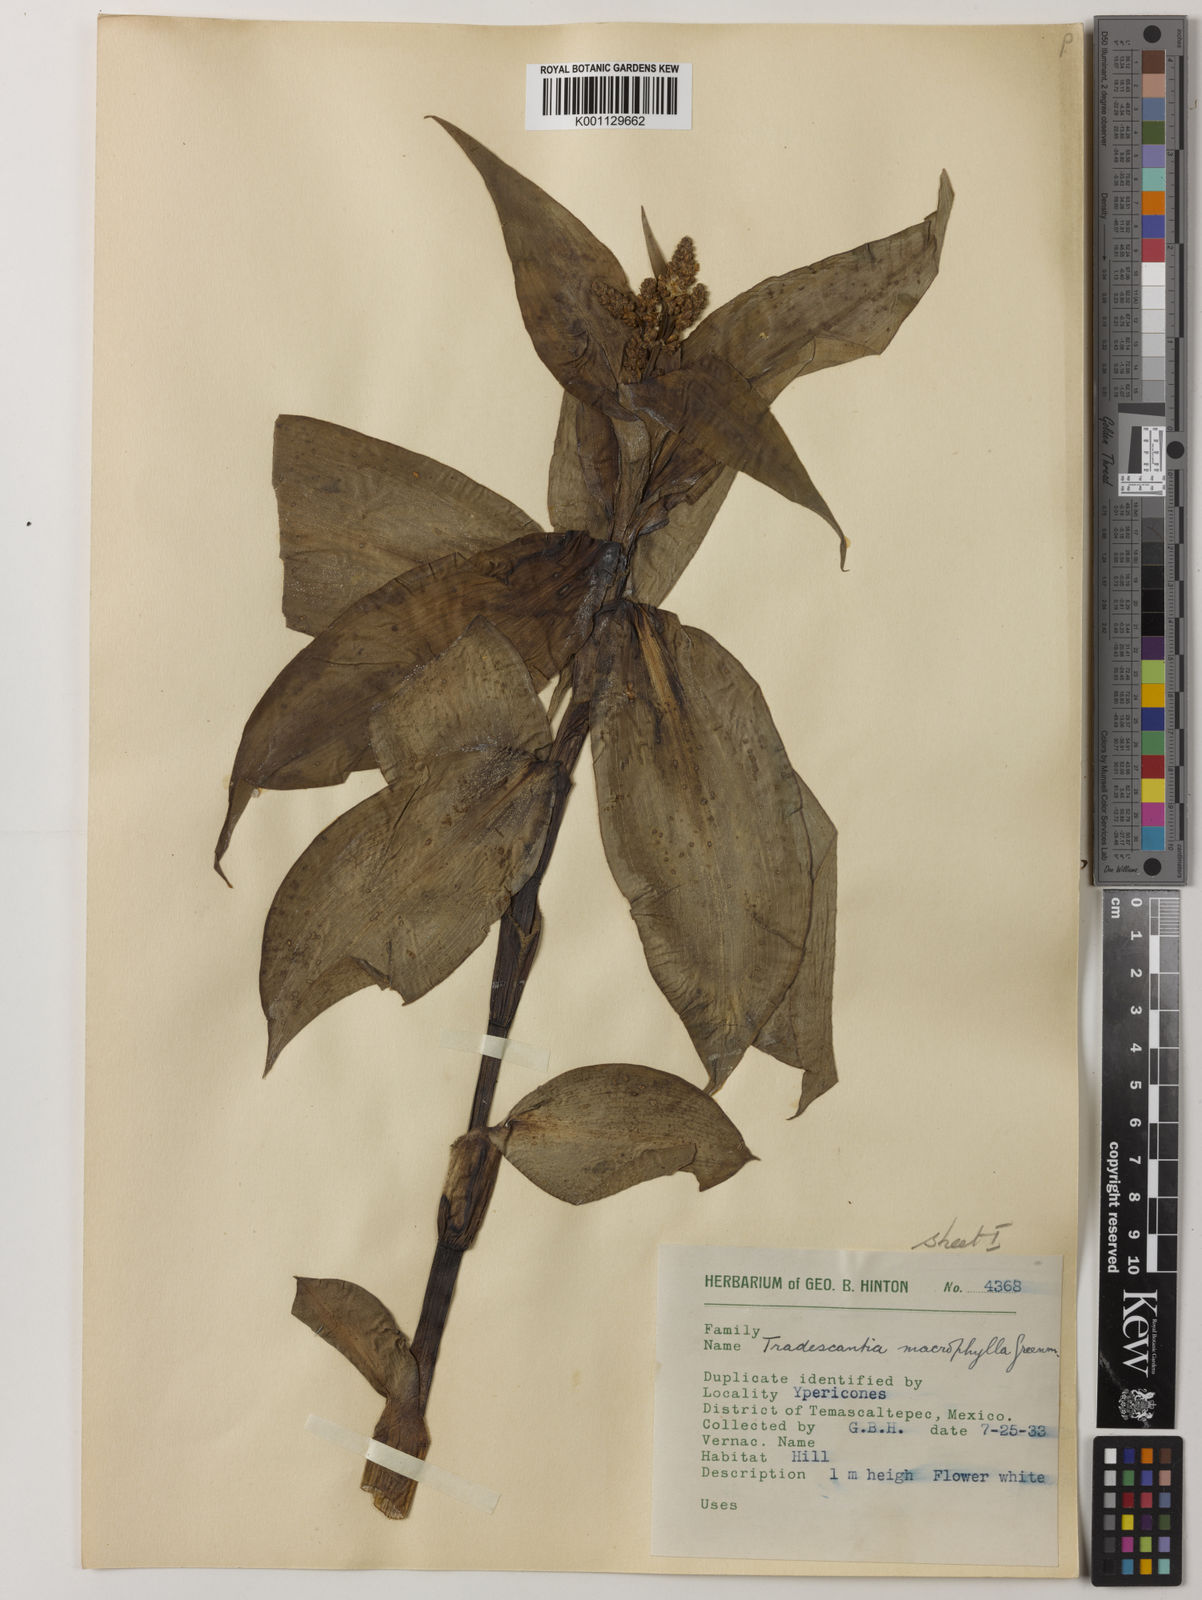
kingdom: Plantae
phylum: Tracheophyta
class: Liliopsida
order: Commelinales
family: Commelinaceae
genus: Thyrsanthemum
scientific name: Thyrsanthemum longifolium
